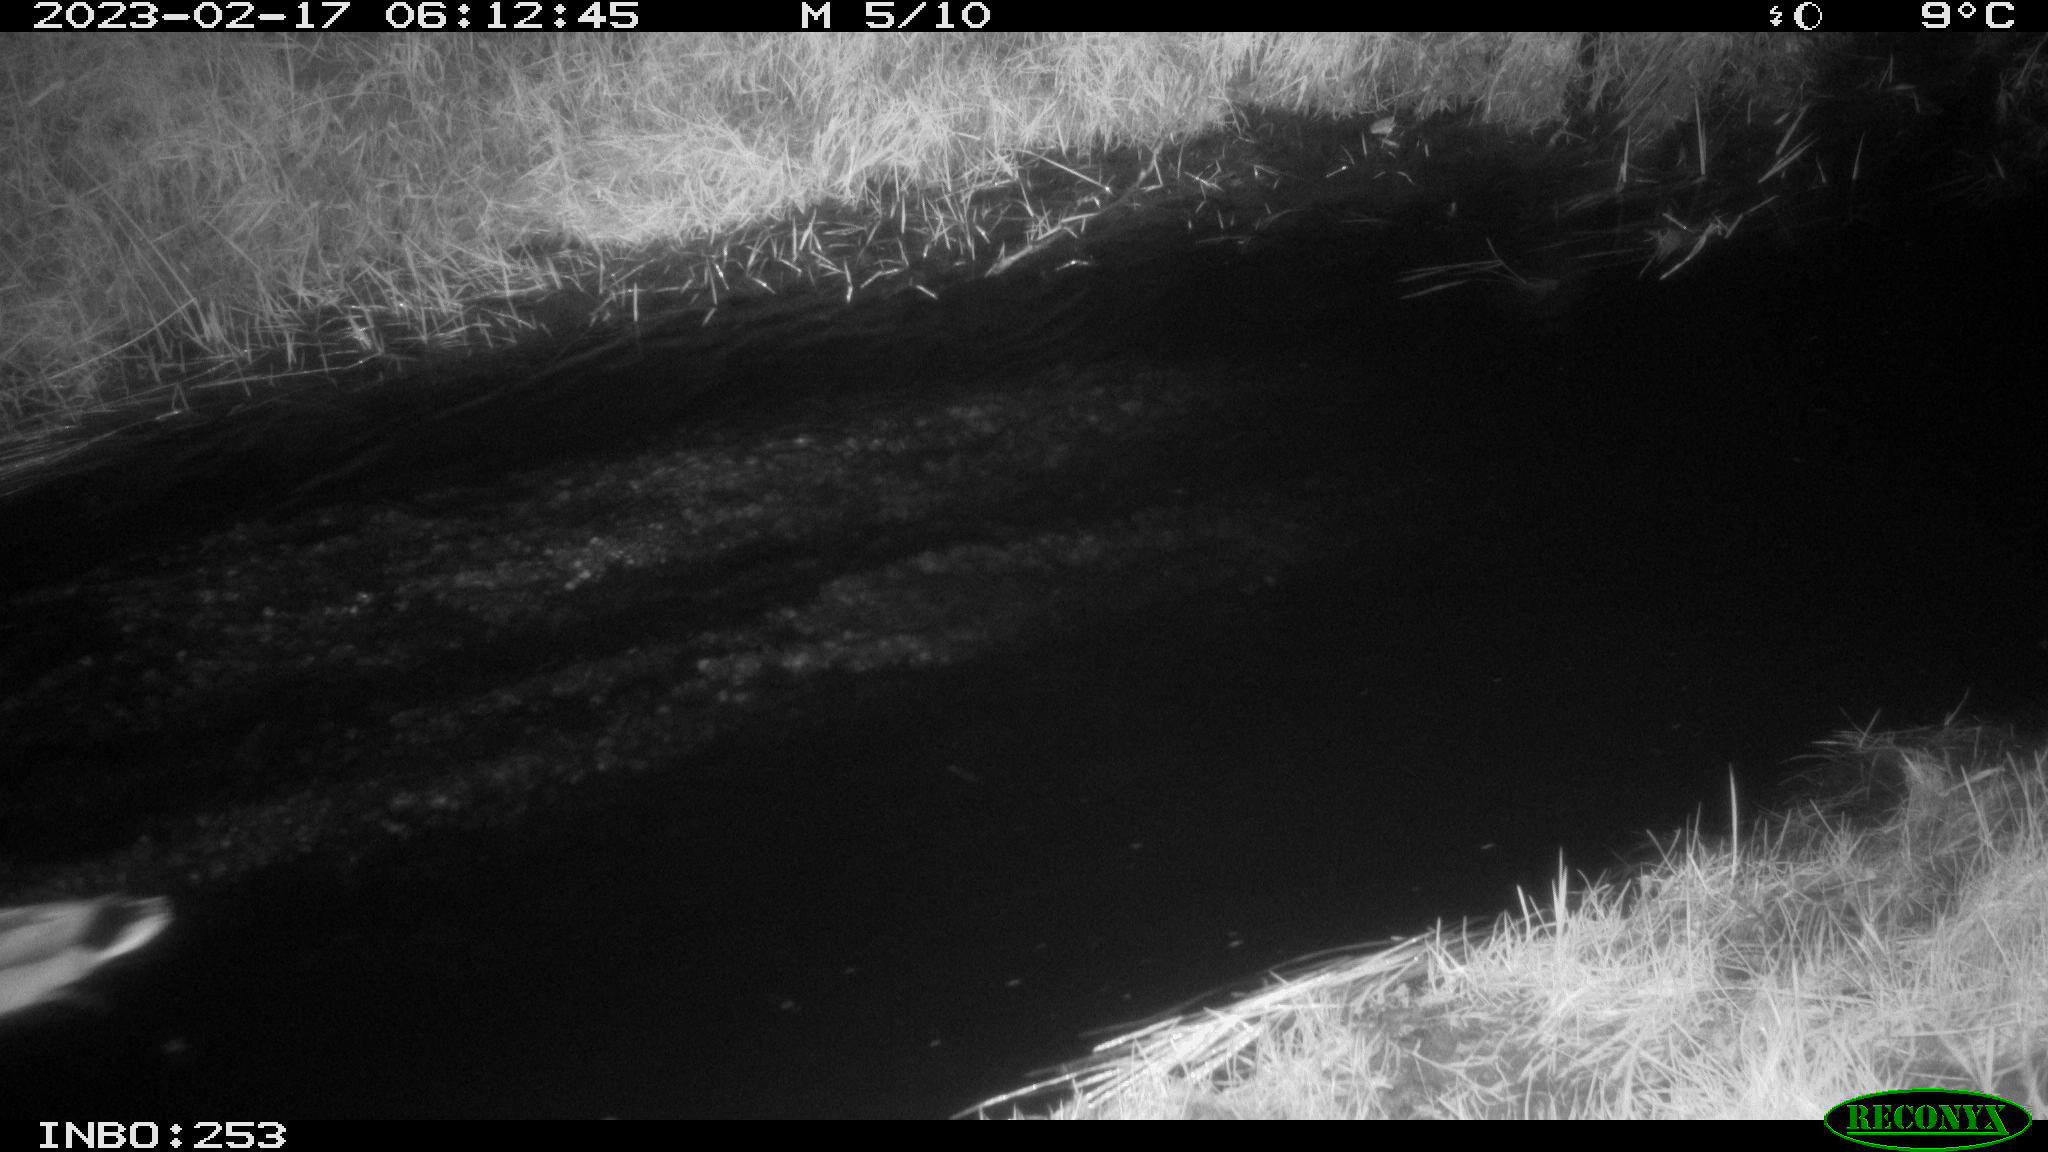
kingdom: Animalia
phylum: Chordata
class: Aves
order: Anseriformes
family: Anatidae
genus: Anas
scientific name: Anas
